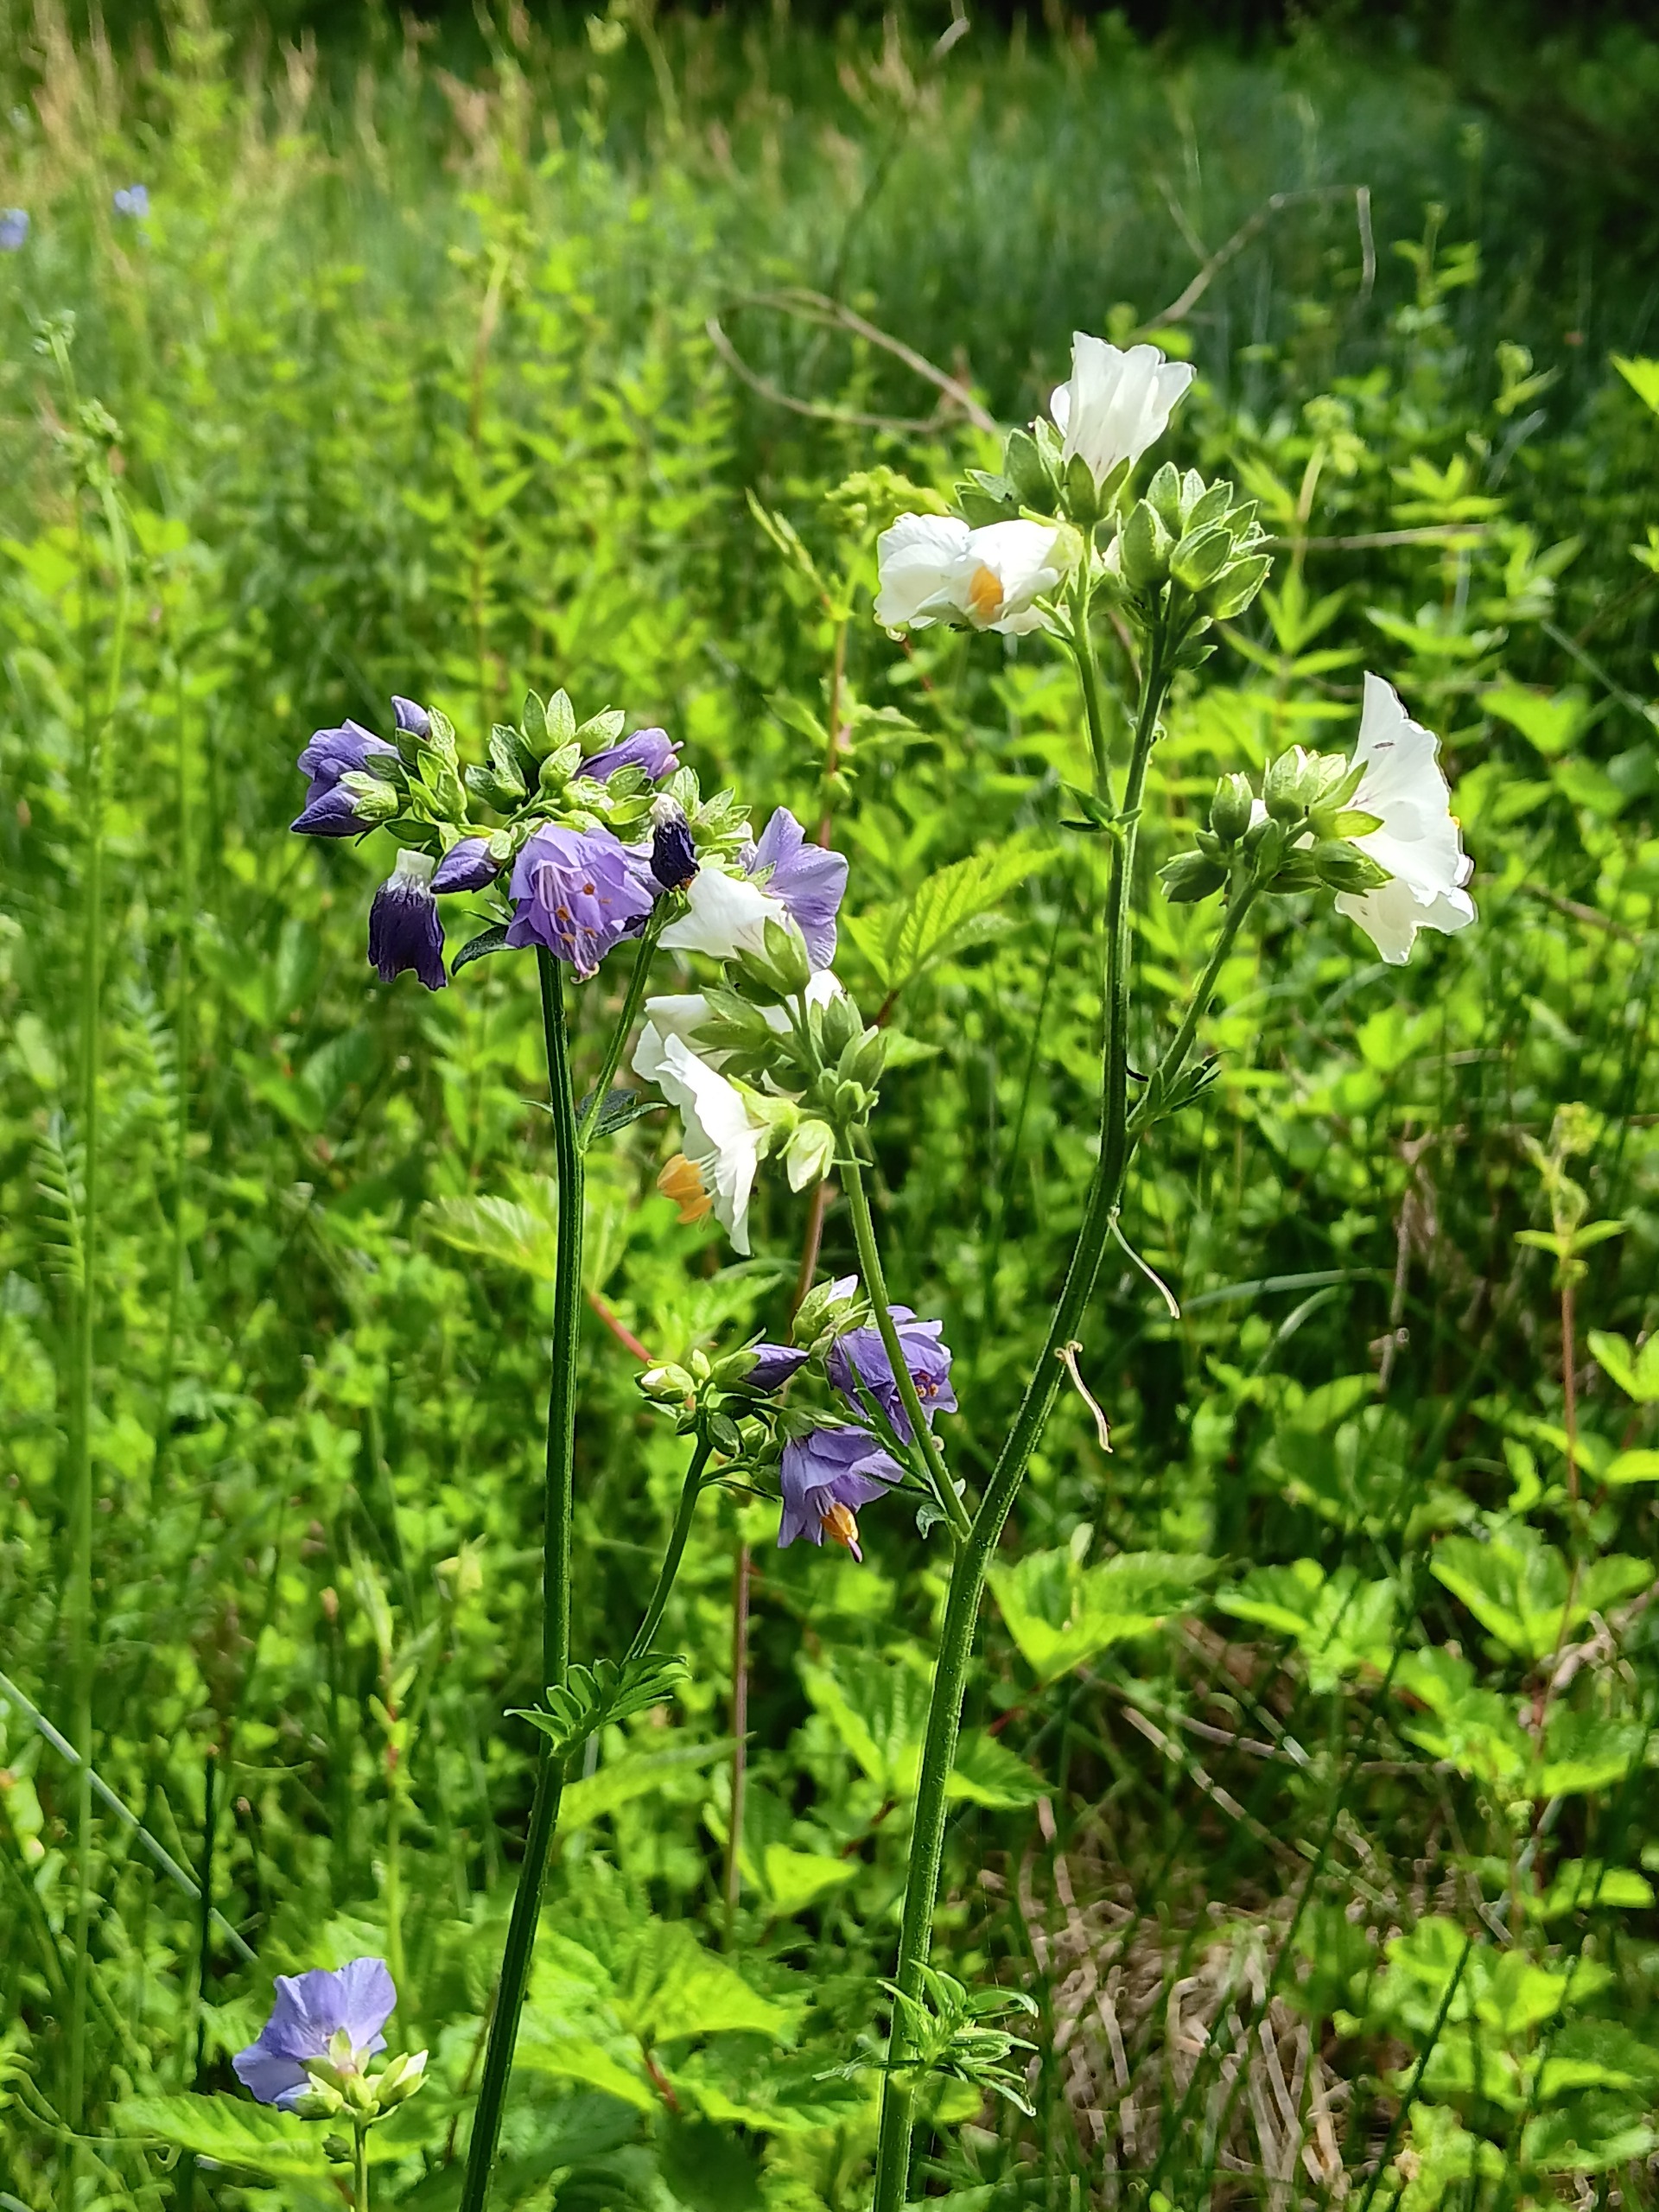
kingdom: Plantae
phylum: Tracheophyta
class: Magnoliopsida
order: Ericales
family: Polemoniaceae
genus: Polemonium
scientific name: Polemonium caeruleum
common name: Jakobsstige
